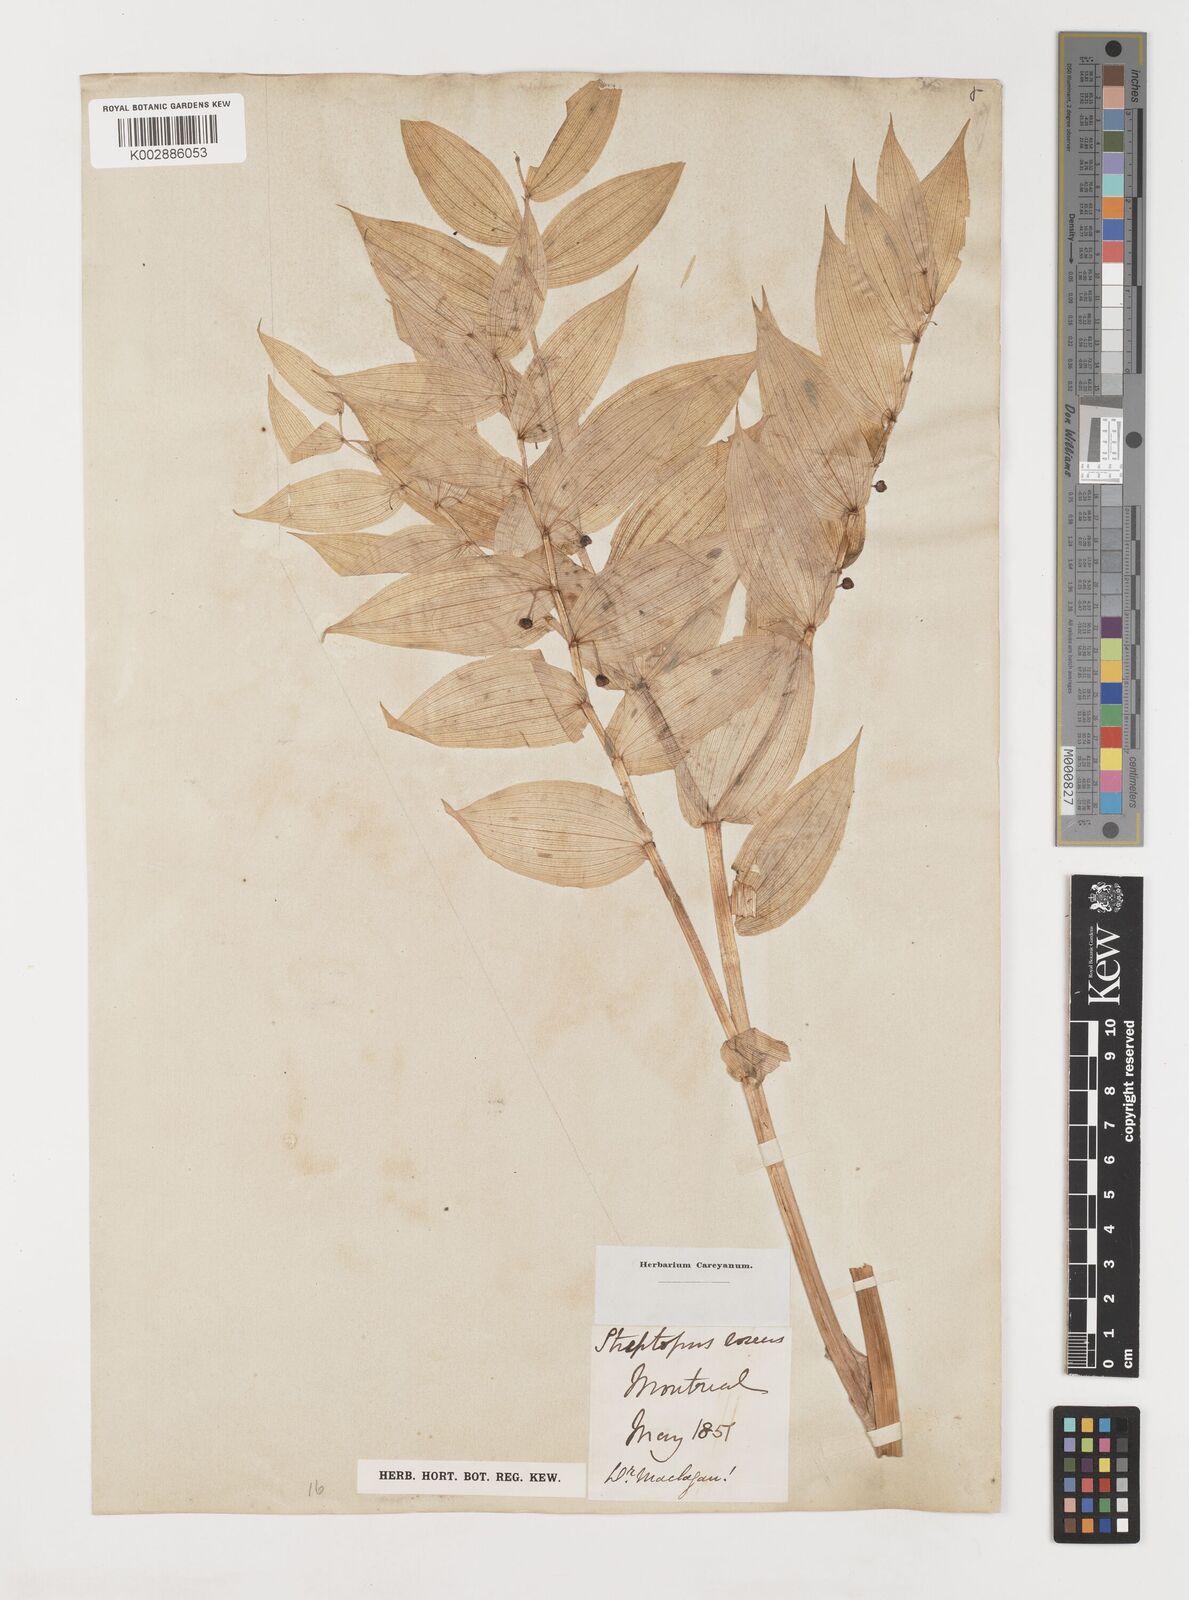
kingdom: Plantae
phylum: Tracheophyta
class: Liliopsida
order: Liliales
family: Liliaceae
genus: Streptopus
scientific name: Streptopus lanceolatus
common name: Rose mandarin
